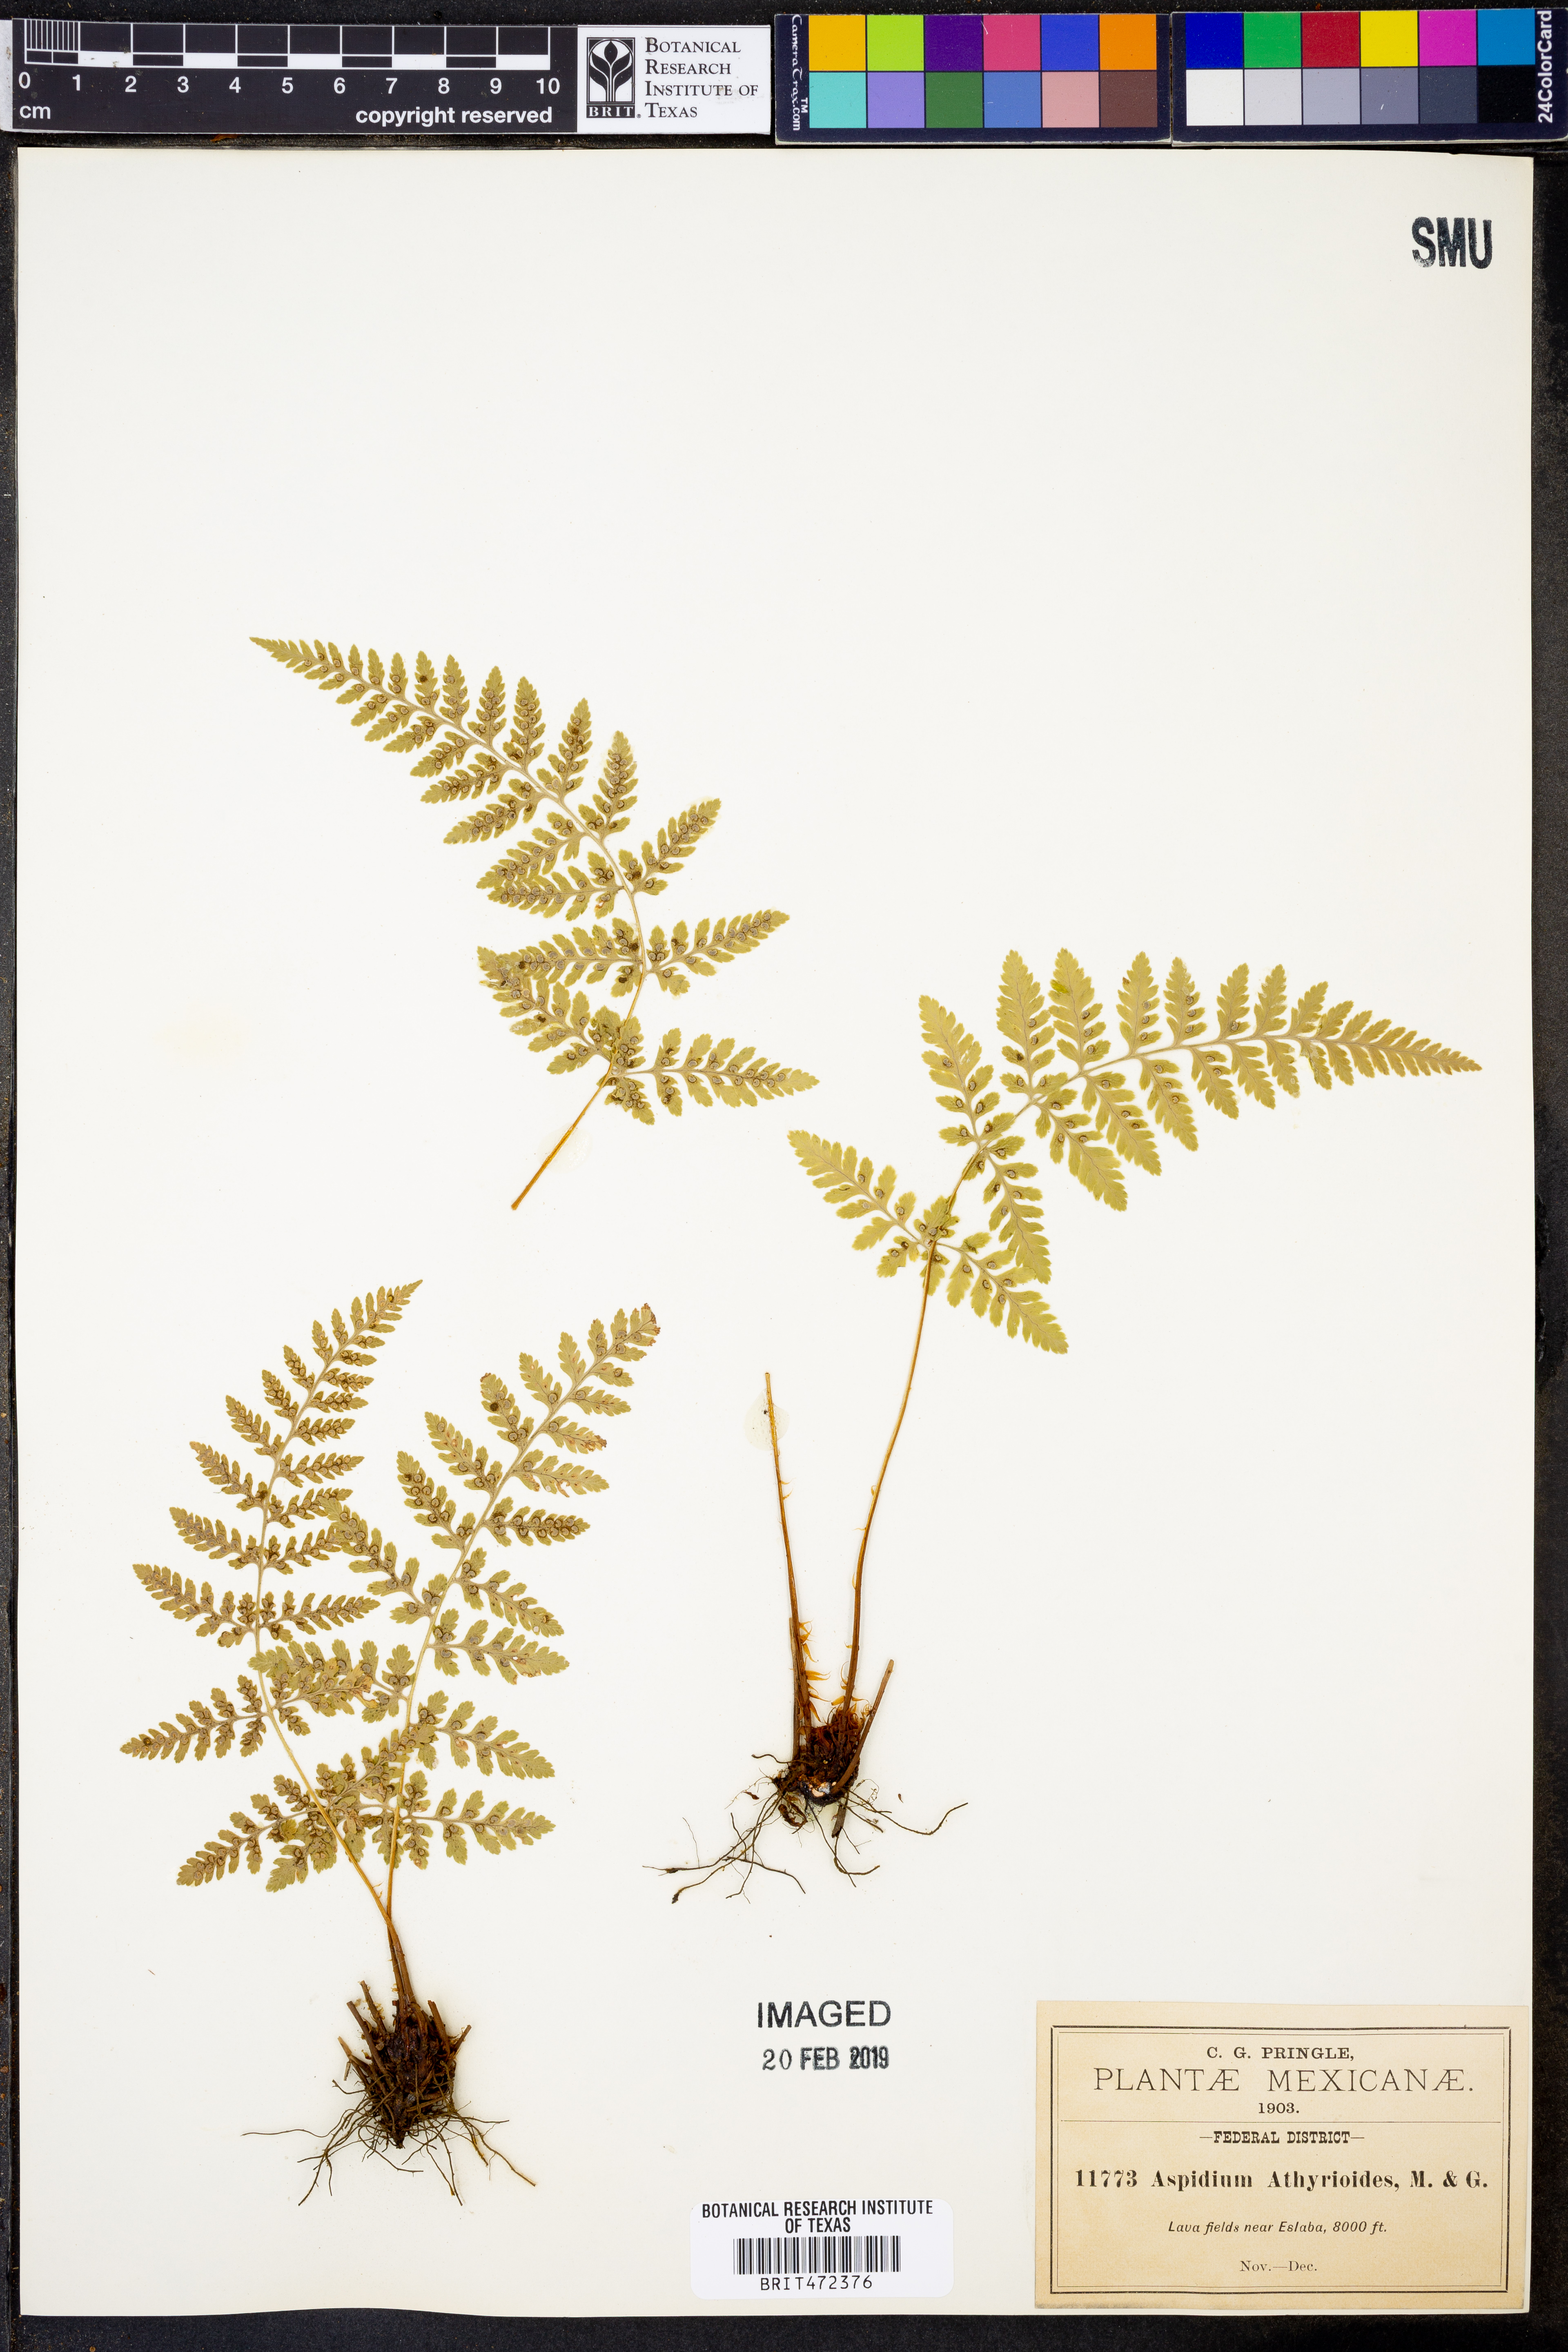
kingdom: Plantae
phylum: Tracheophyta
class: Polypodiopsida
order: Polypodiales
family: Dryopteridaceae
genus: Dryopteris
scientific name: Dryopteris cinnamomea
